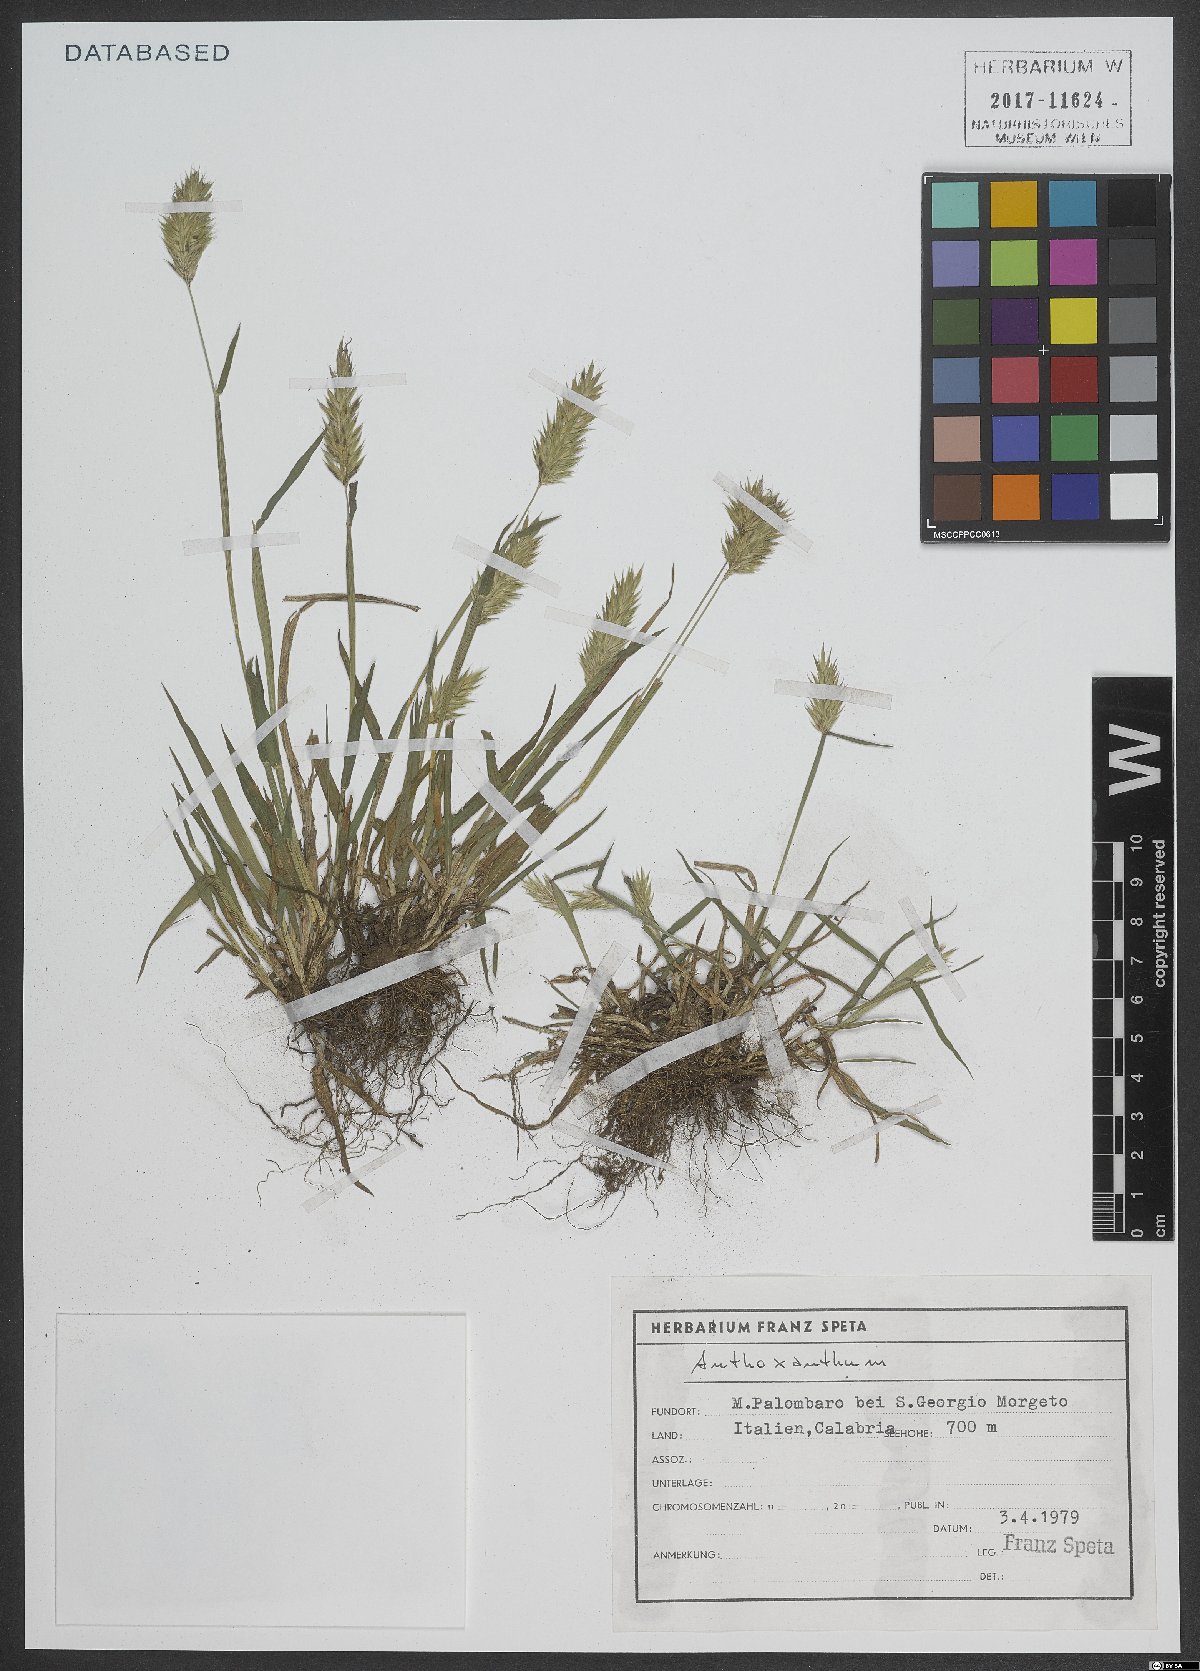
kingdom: Plantae
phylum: Tracheophyta
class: Liliopsida
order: Poales
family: Poaceae
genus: Anthoxanthum
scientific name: Anthoxanthum
